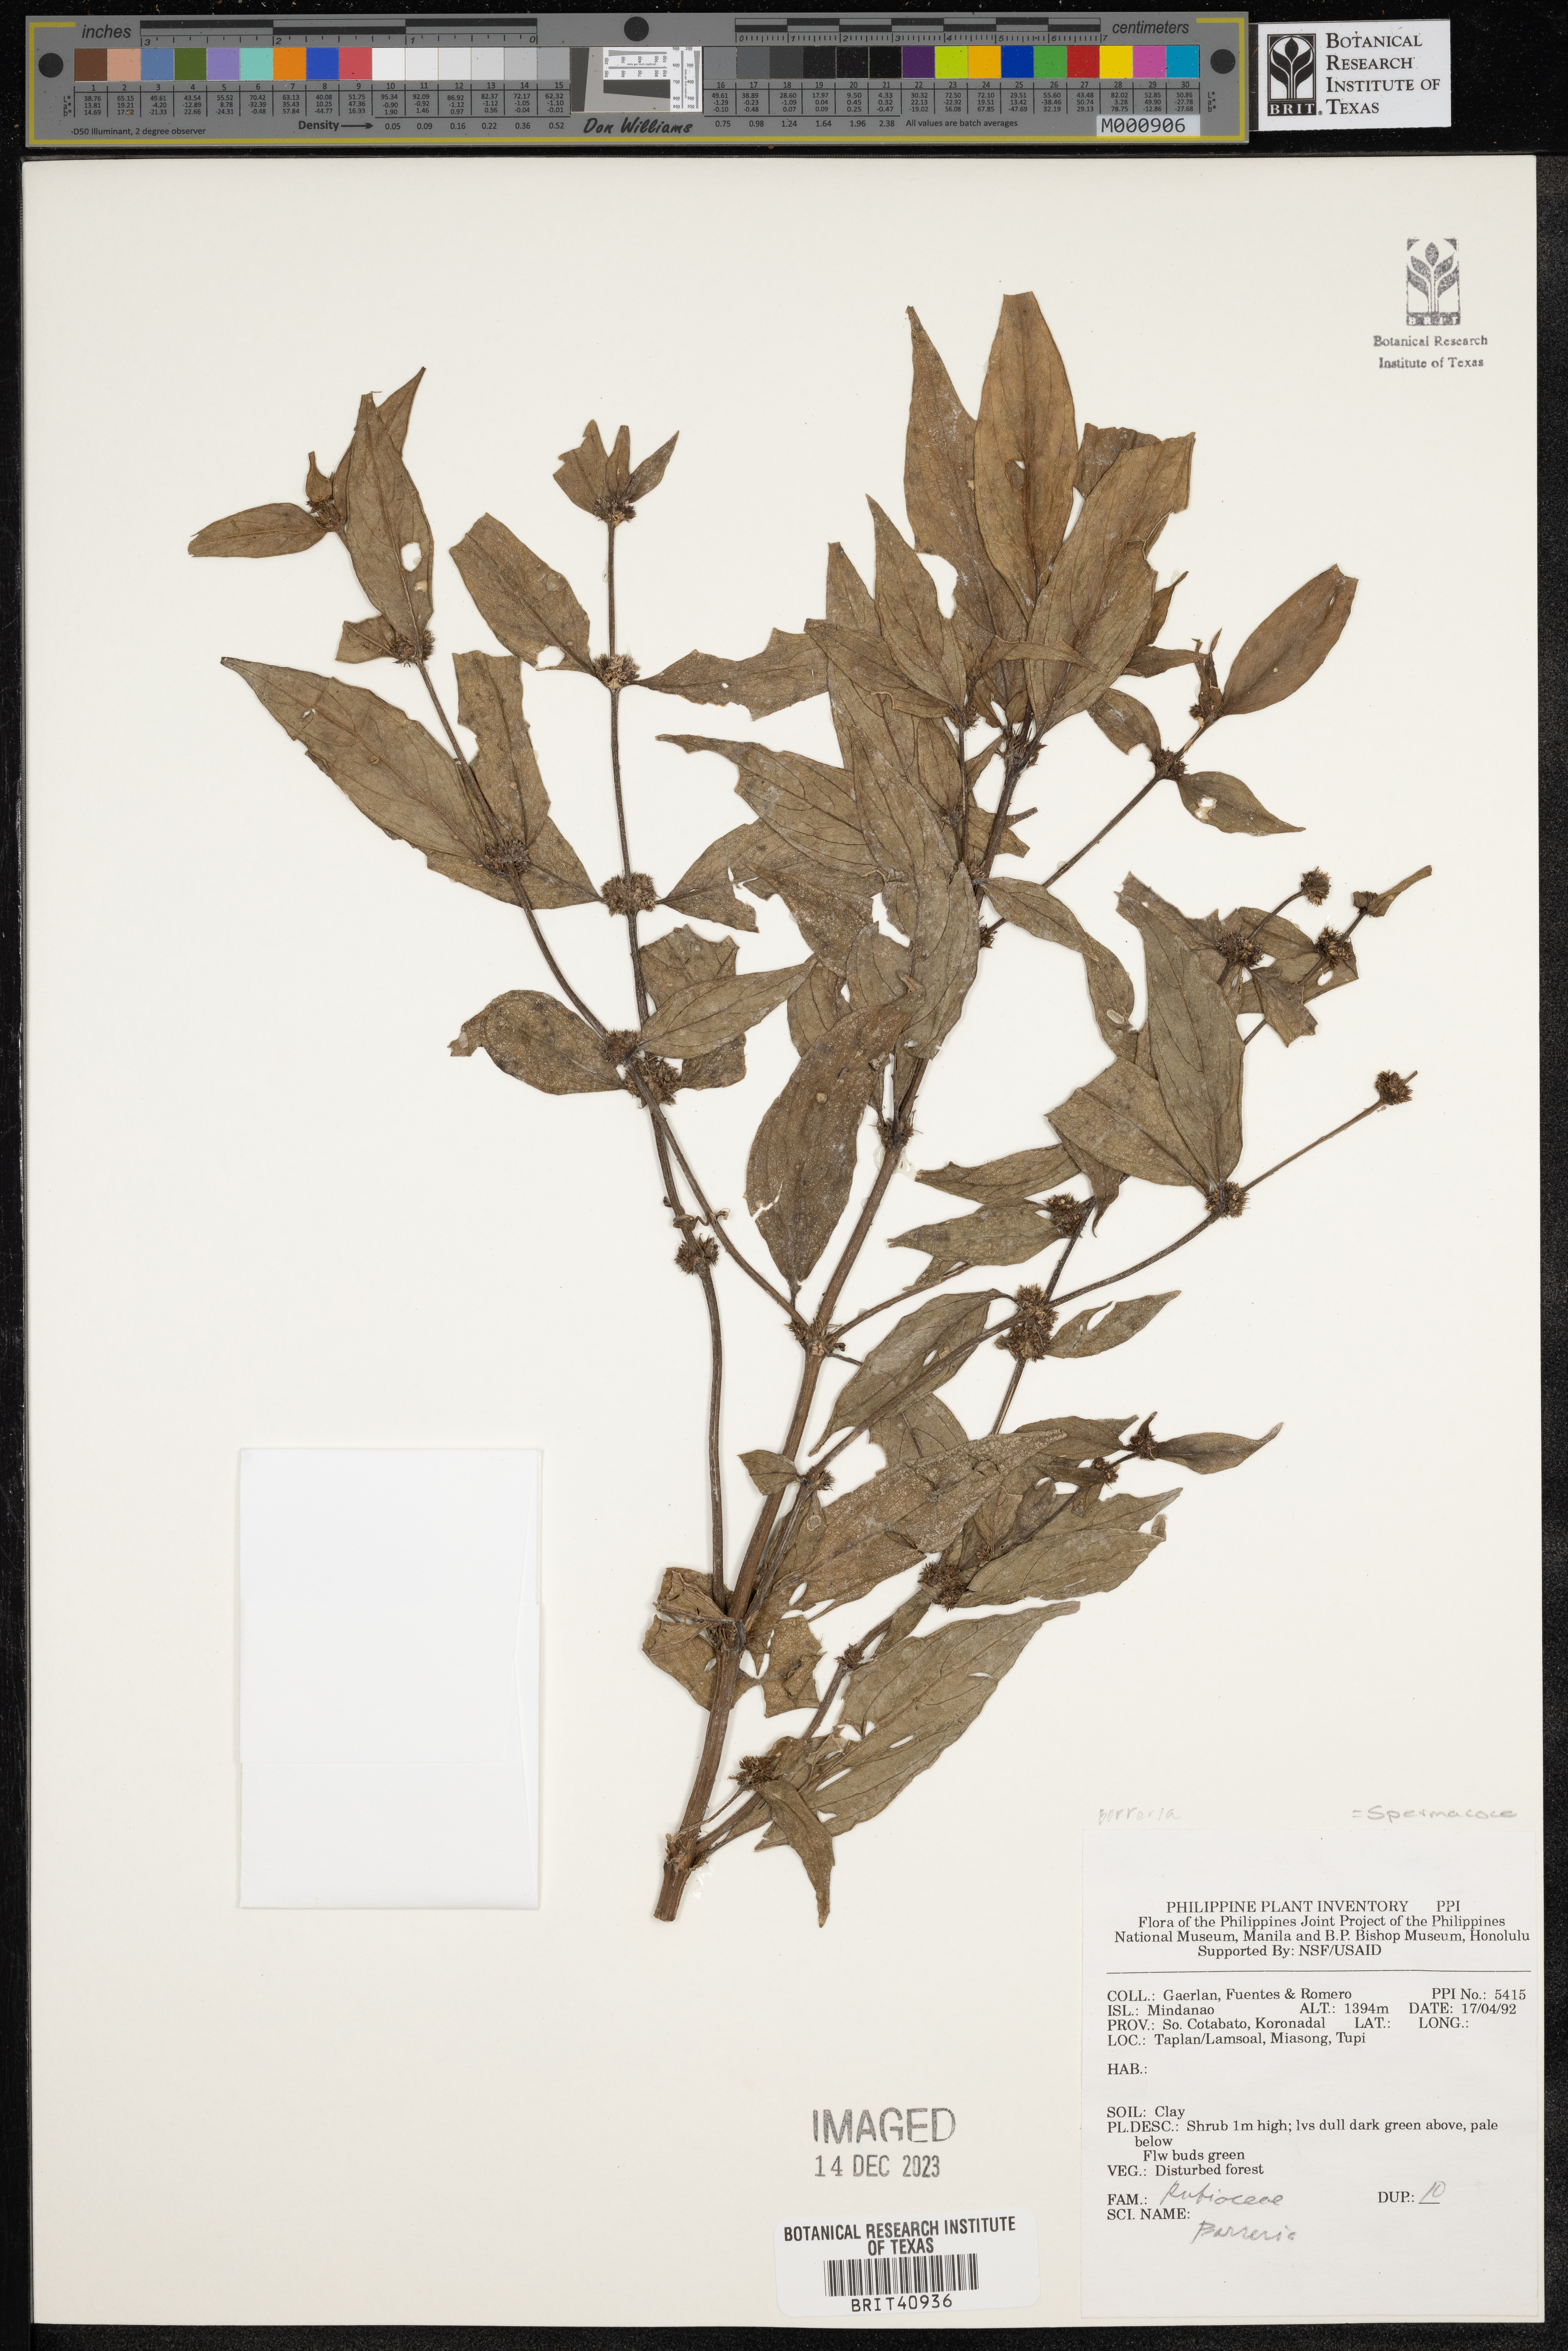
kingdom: Plantae
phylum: Tracheophyta
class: Magnoliopsida
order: Gentianales
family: Rubiaceae
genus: Spermacoce
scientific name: Spermacoce
